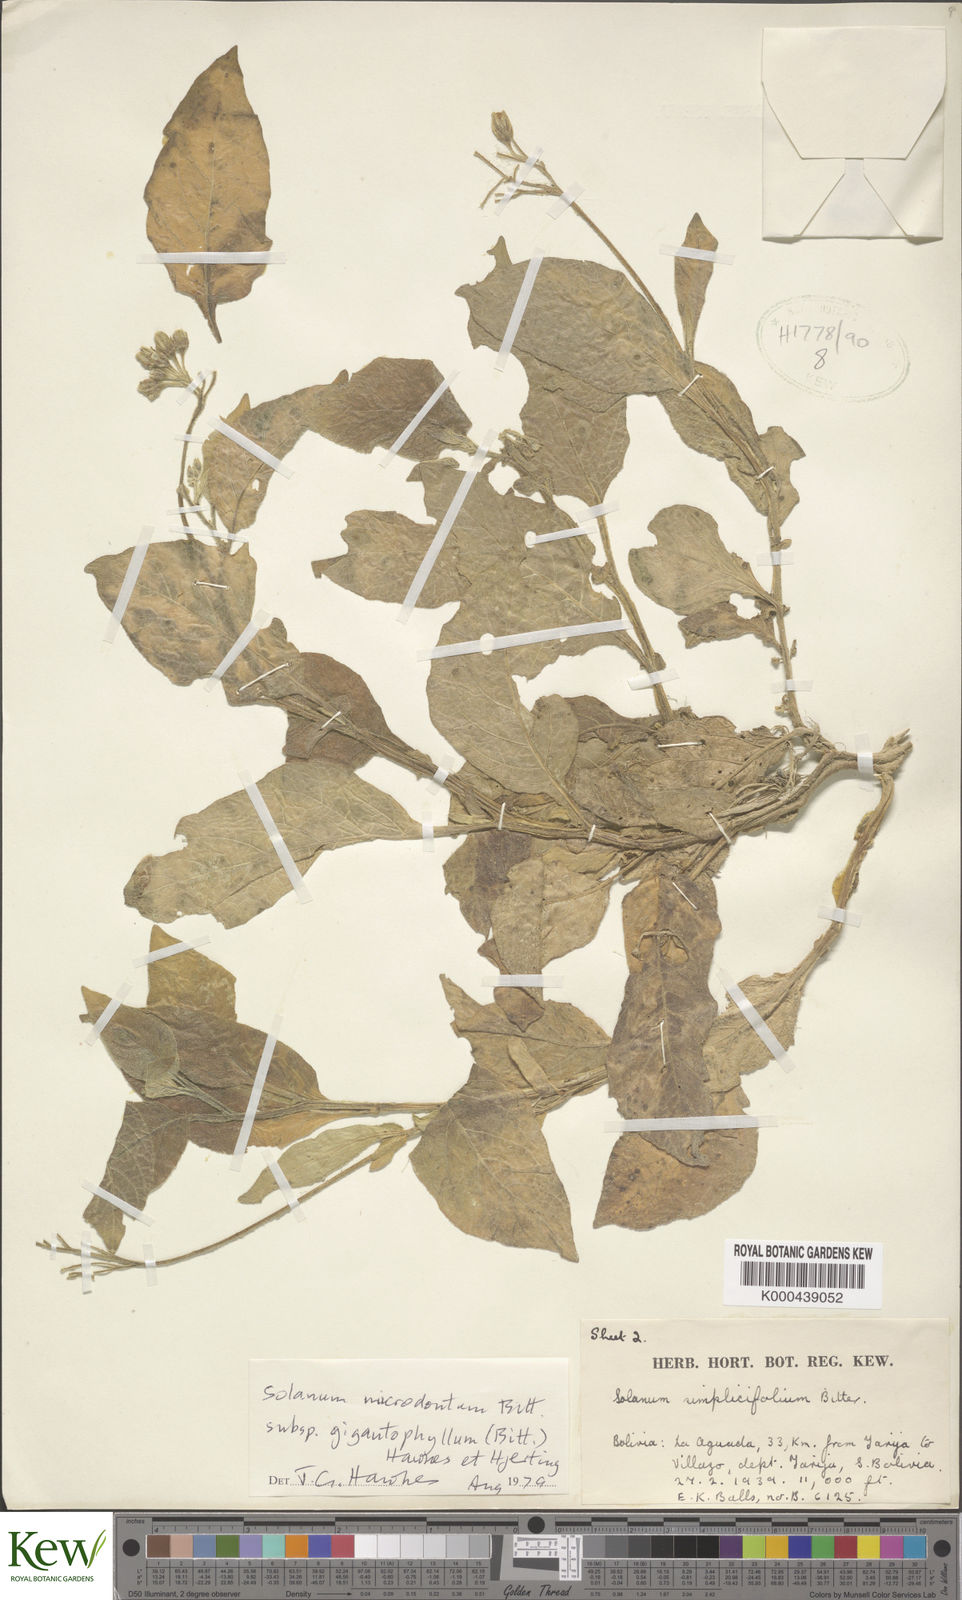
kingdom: Plantae
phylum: Tracheophyta
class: Magnoliopsida
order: Solanales
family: Solanaceae
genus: Solanum
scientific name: Solanum microdontum
